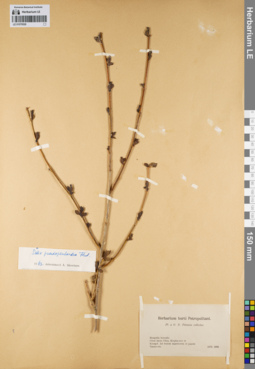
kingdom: Plantae
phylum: Tracheophyta
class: Magnoliopsida
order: Malpighiales
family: Salicaceae
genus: Salix
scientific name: Salix pseudopentandra
